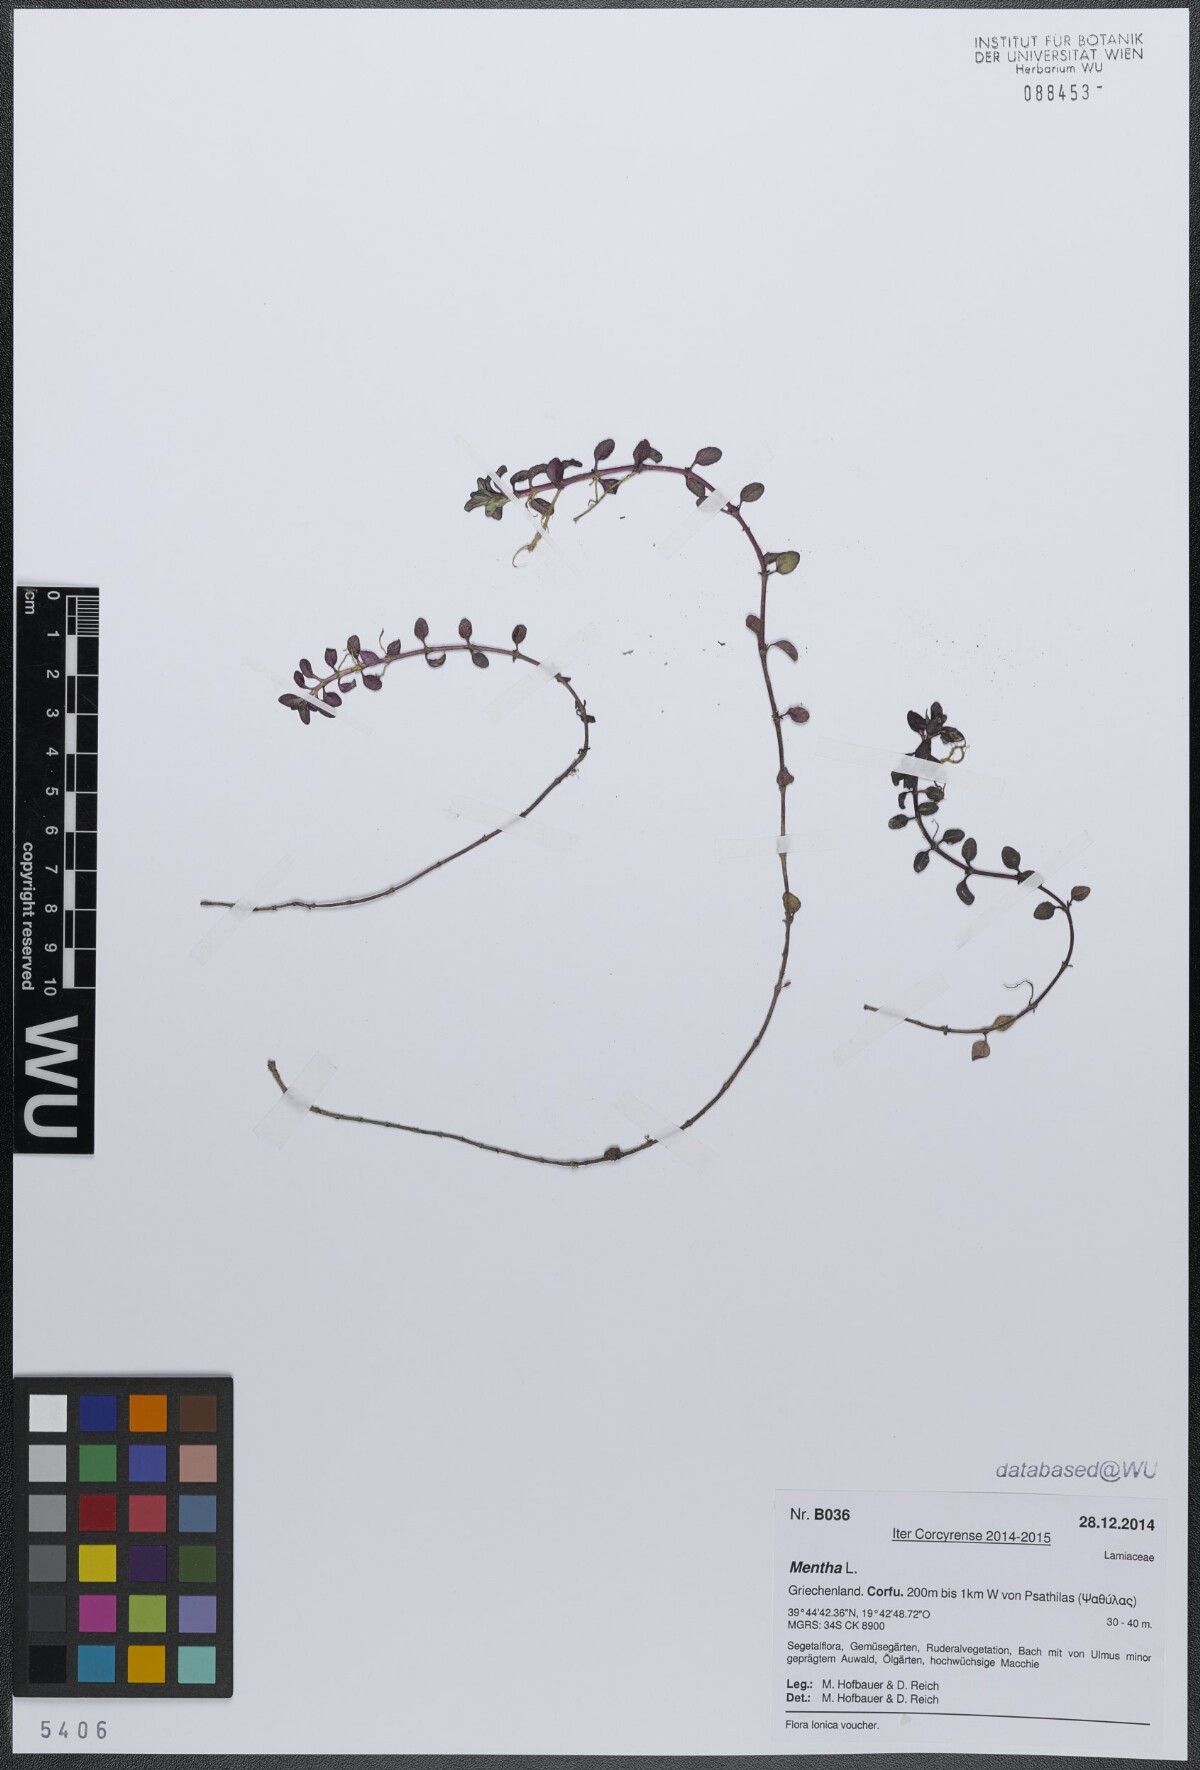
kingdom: Plantae
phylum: Tracheophyta
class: Magnoliopsida
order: Lamiales
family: Lamiaceae
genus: Mentha
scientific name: Mentha
